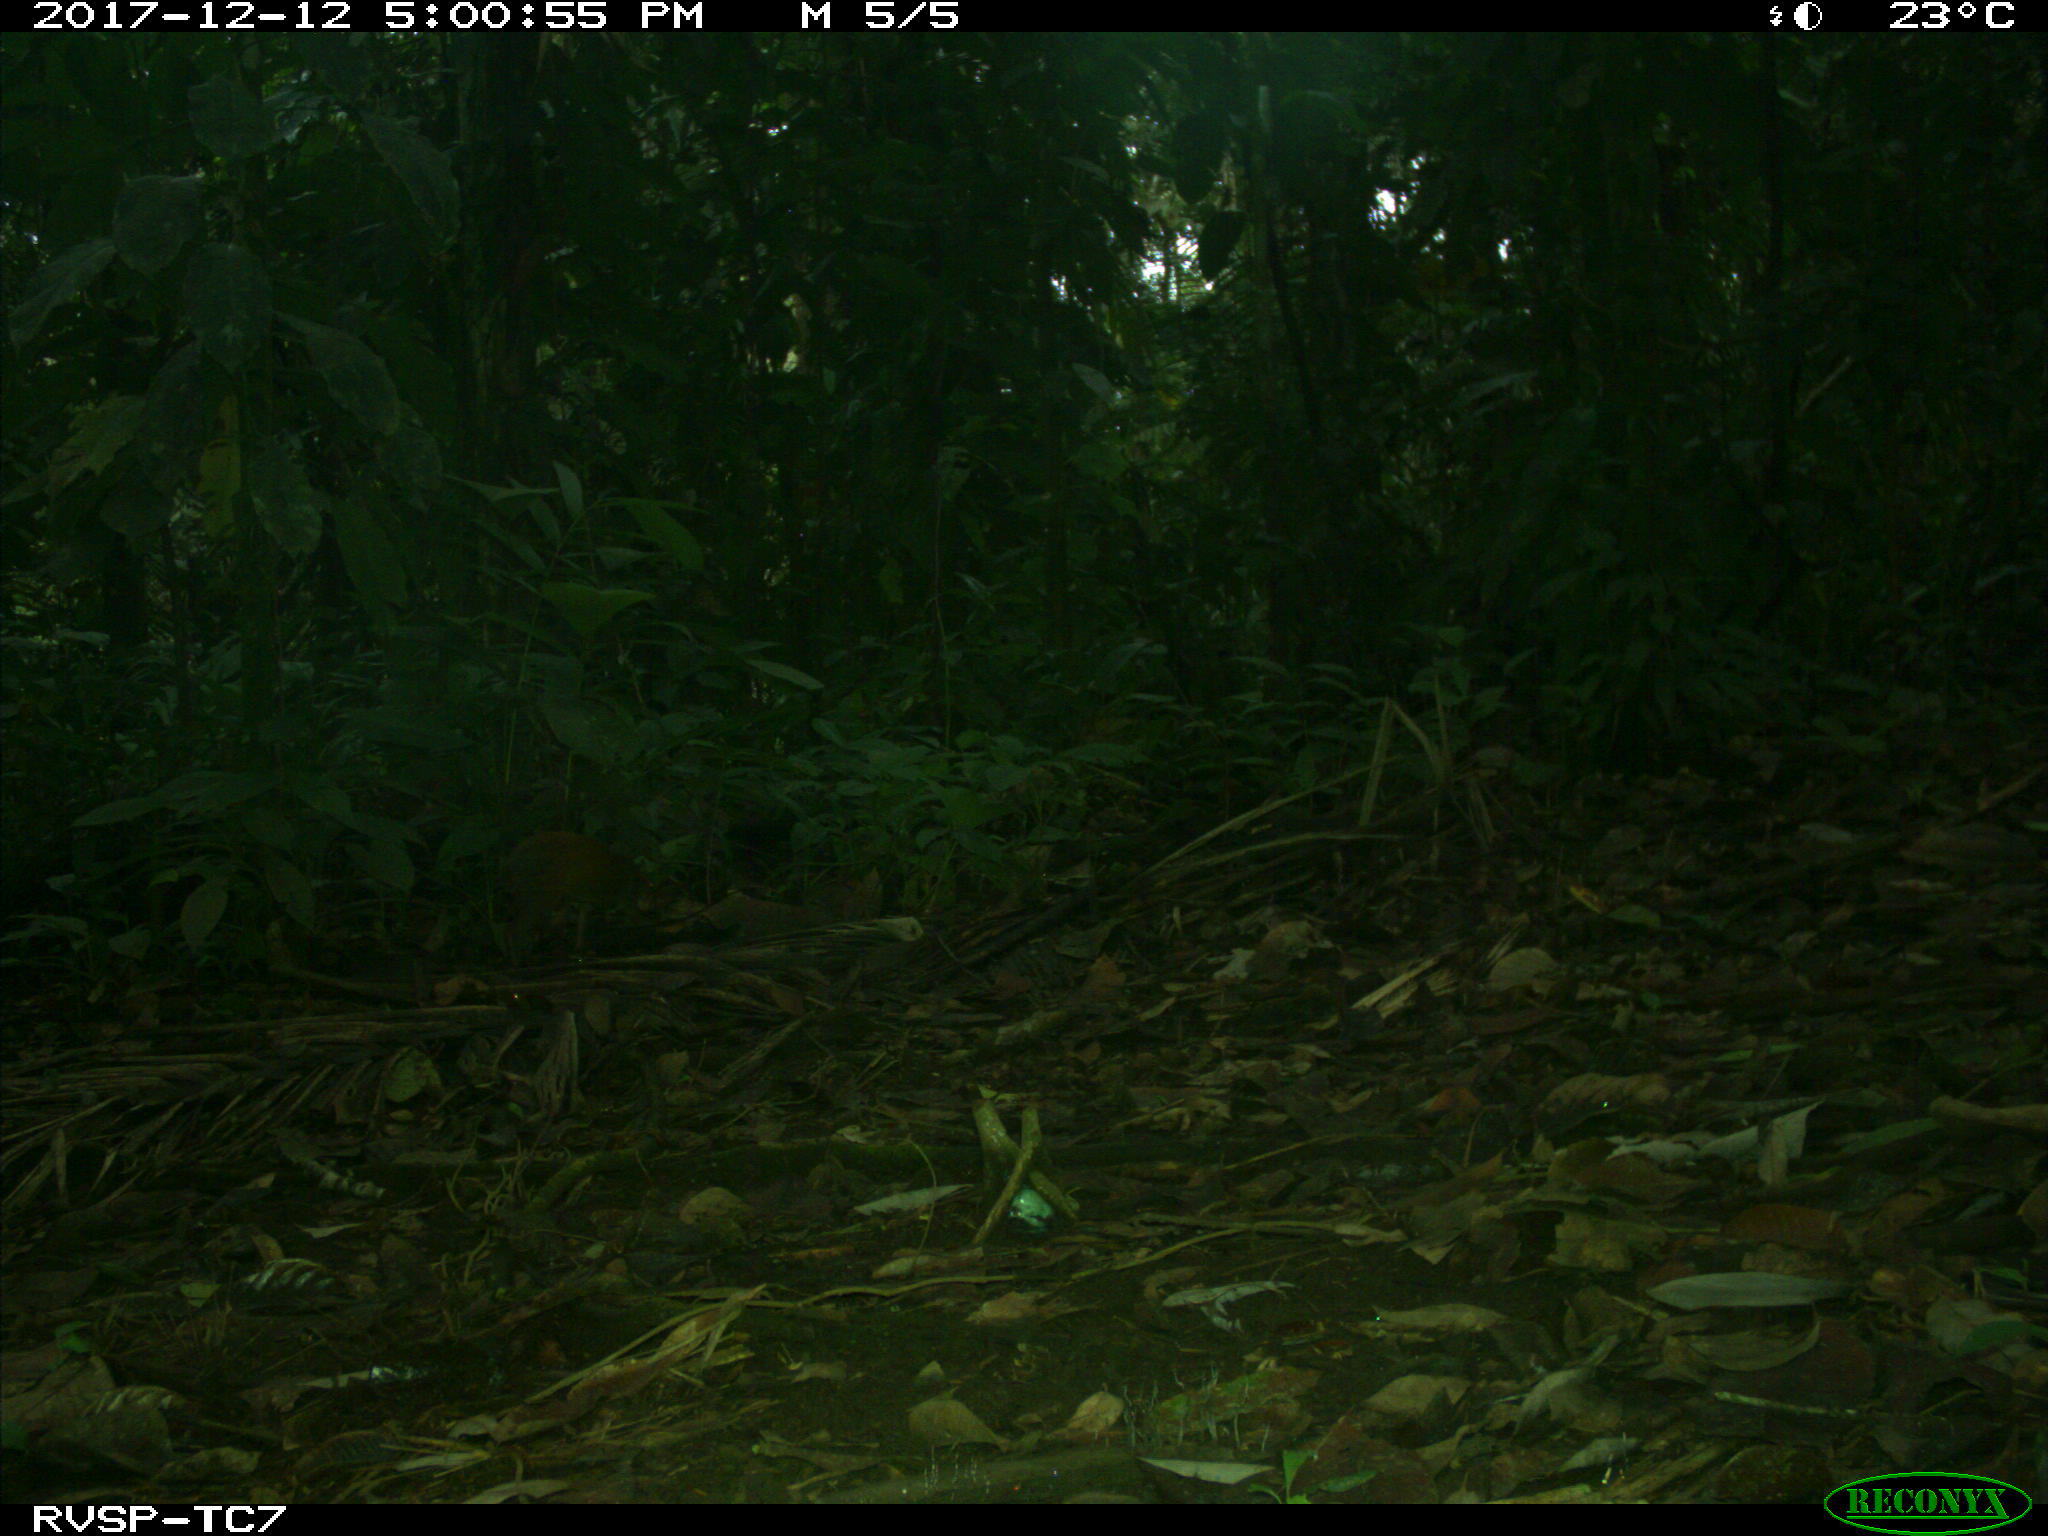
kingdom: Animalia
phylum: Chordata
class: Mammalia
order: Rodentia
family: Dasyproctidae
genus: Dasyprocta
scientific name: Dasyprocta punctata
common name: Central american agouti
